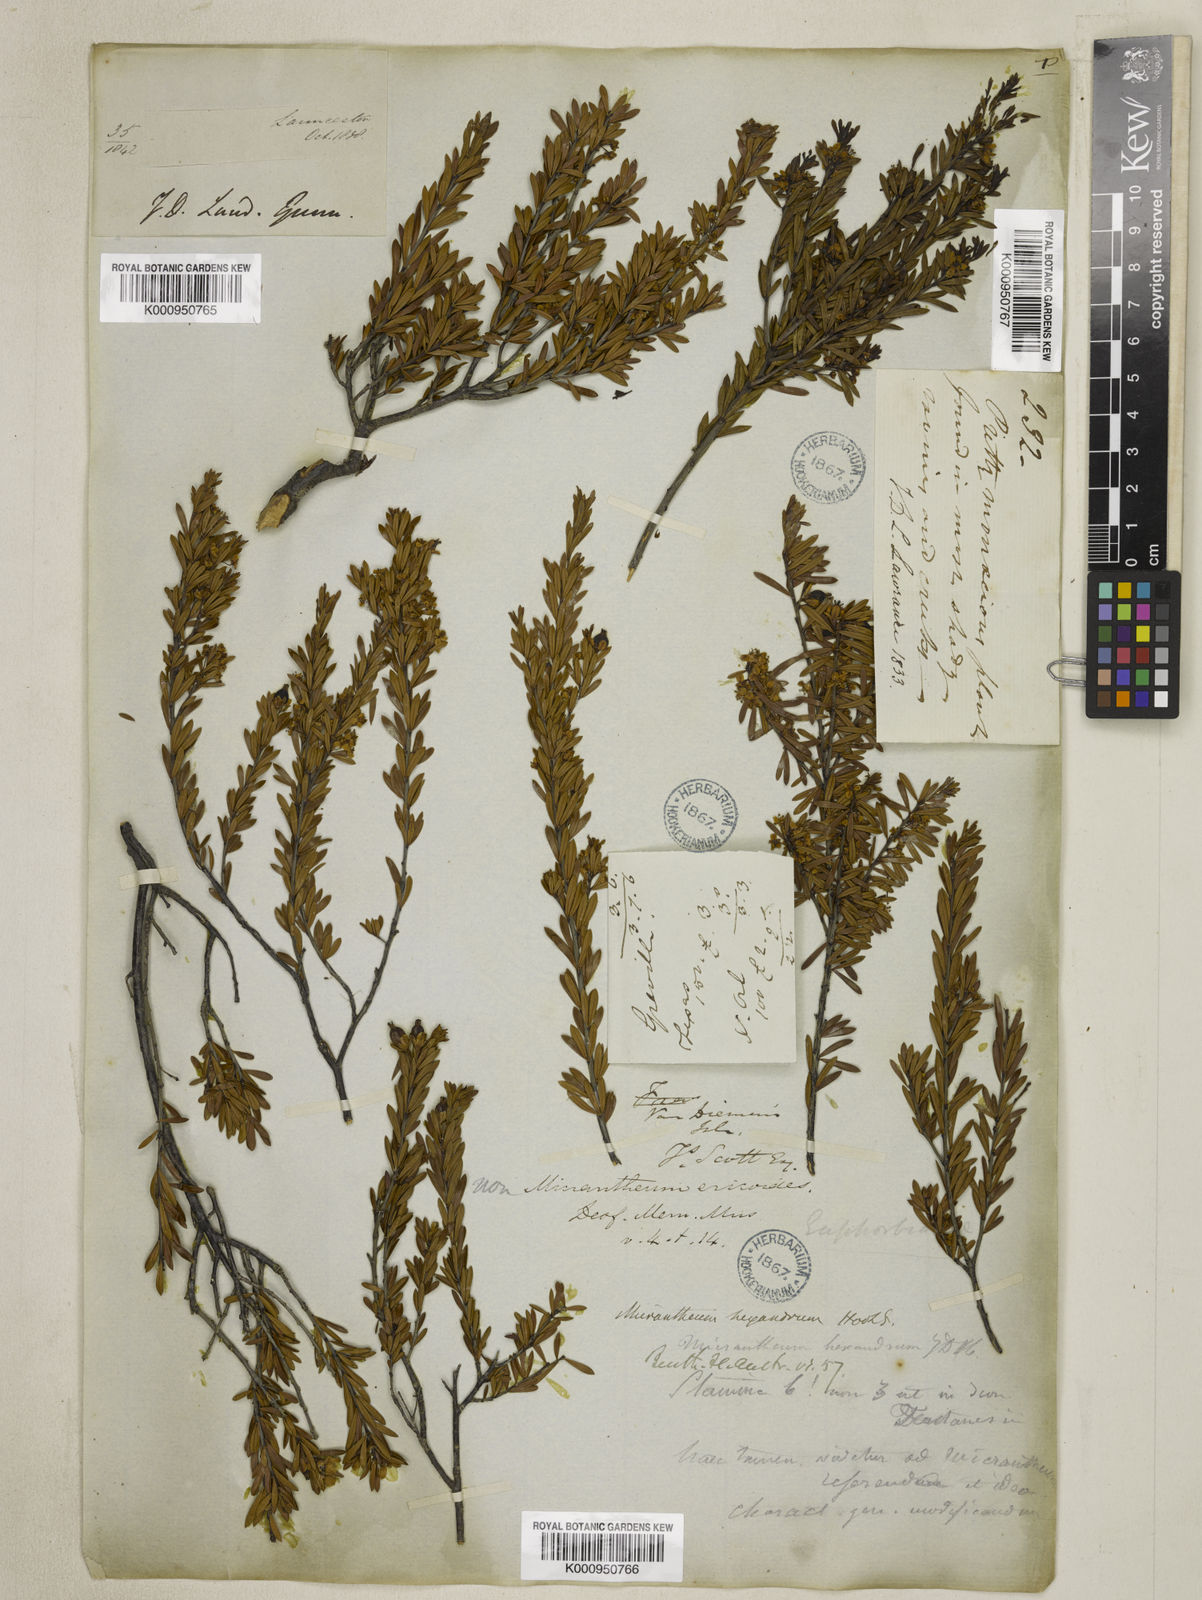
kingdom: Plantae
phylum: Tracheophyta
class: Magnoliopsida
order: Malpighiales
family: Picrodendraceae
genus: Micrantheum
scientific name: Micrantheum hexandrum
